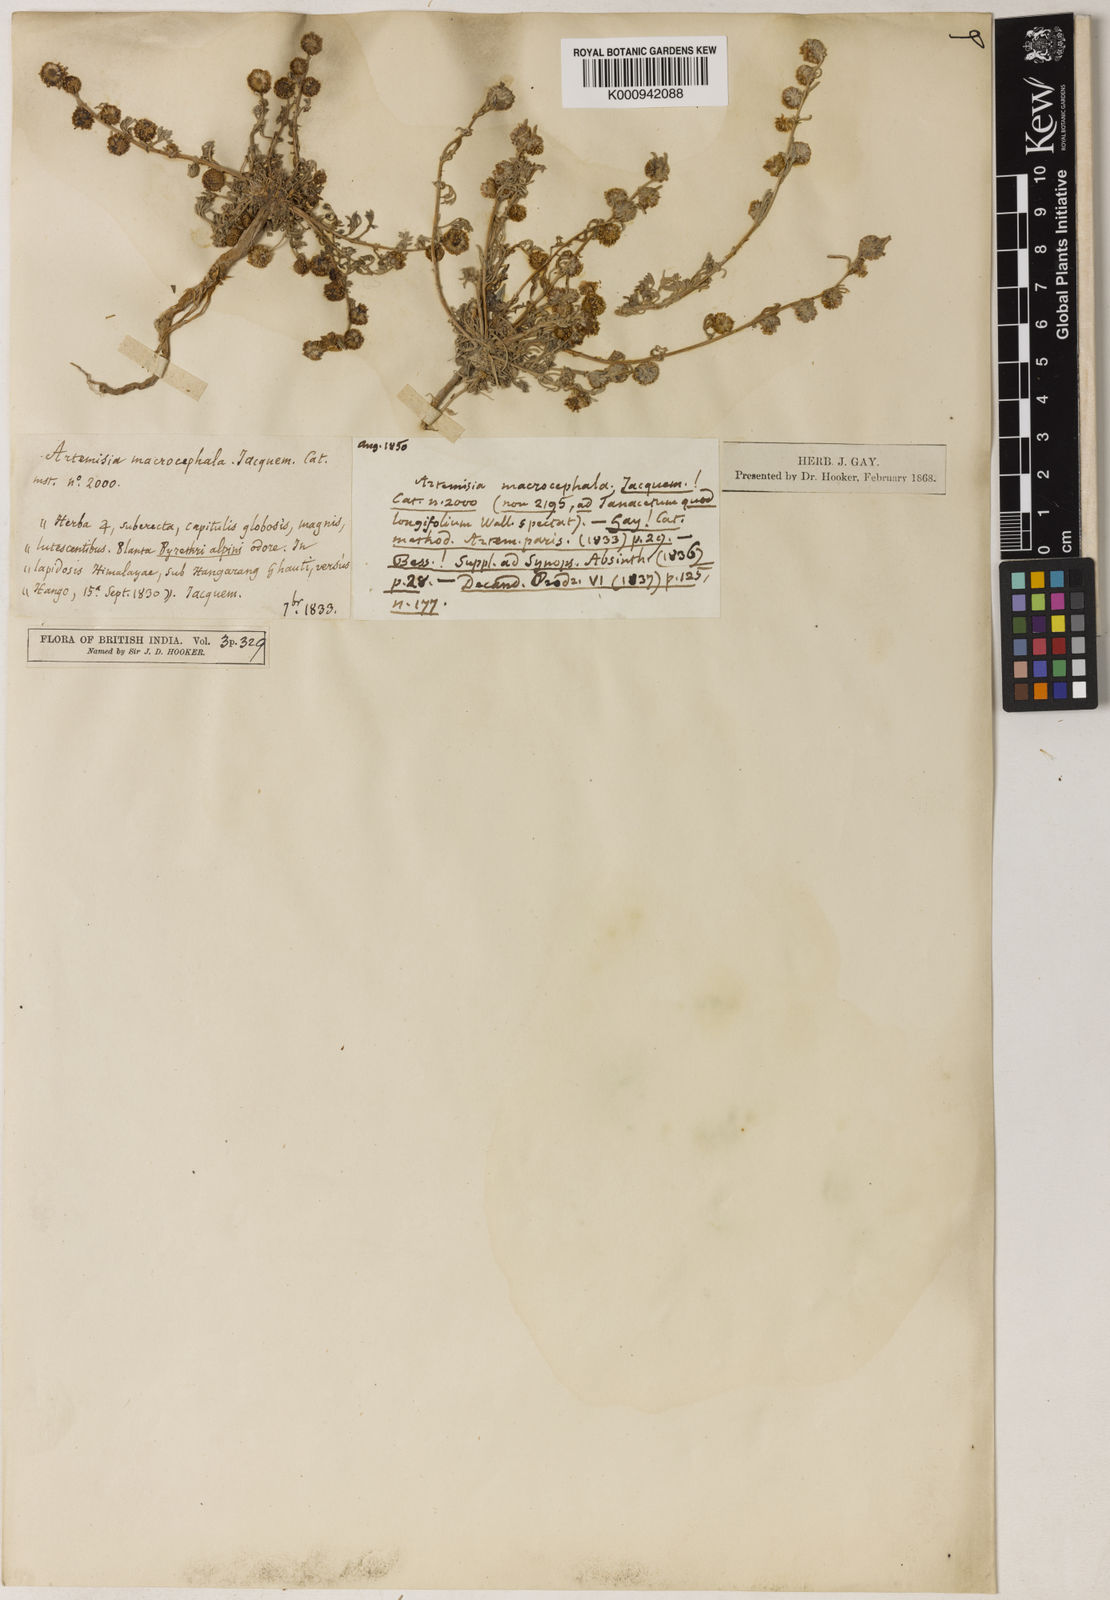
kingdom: Plantae
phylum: Tracheophyta
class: Magnoliopsida
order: Asterales
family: Asteraceae
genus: Artemisia
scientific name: Artemisia macrocephala
